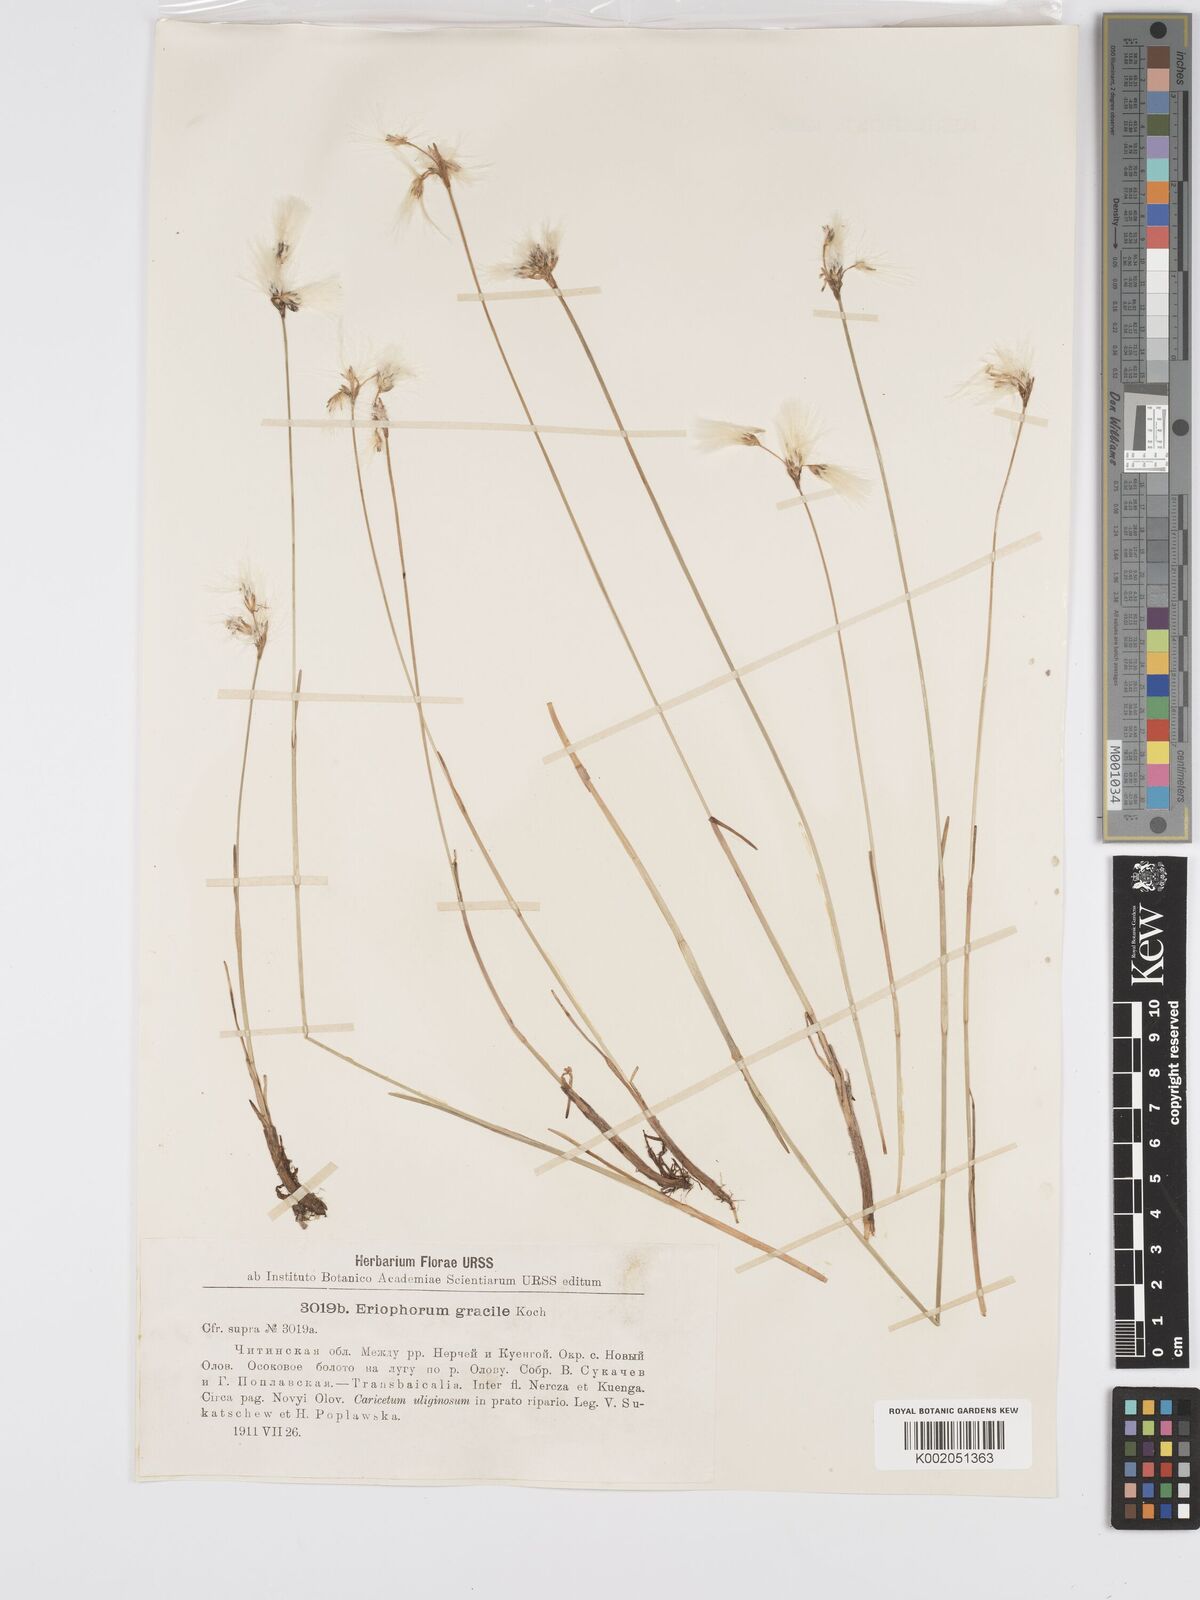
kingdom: Plantae
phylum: Tracheophyta
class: Liliopsida
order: Poales
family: Cyperaceae
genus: Eriophorum
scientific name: Eriophorum gracile
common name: Slender cottongrass
